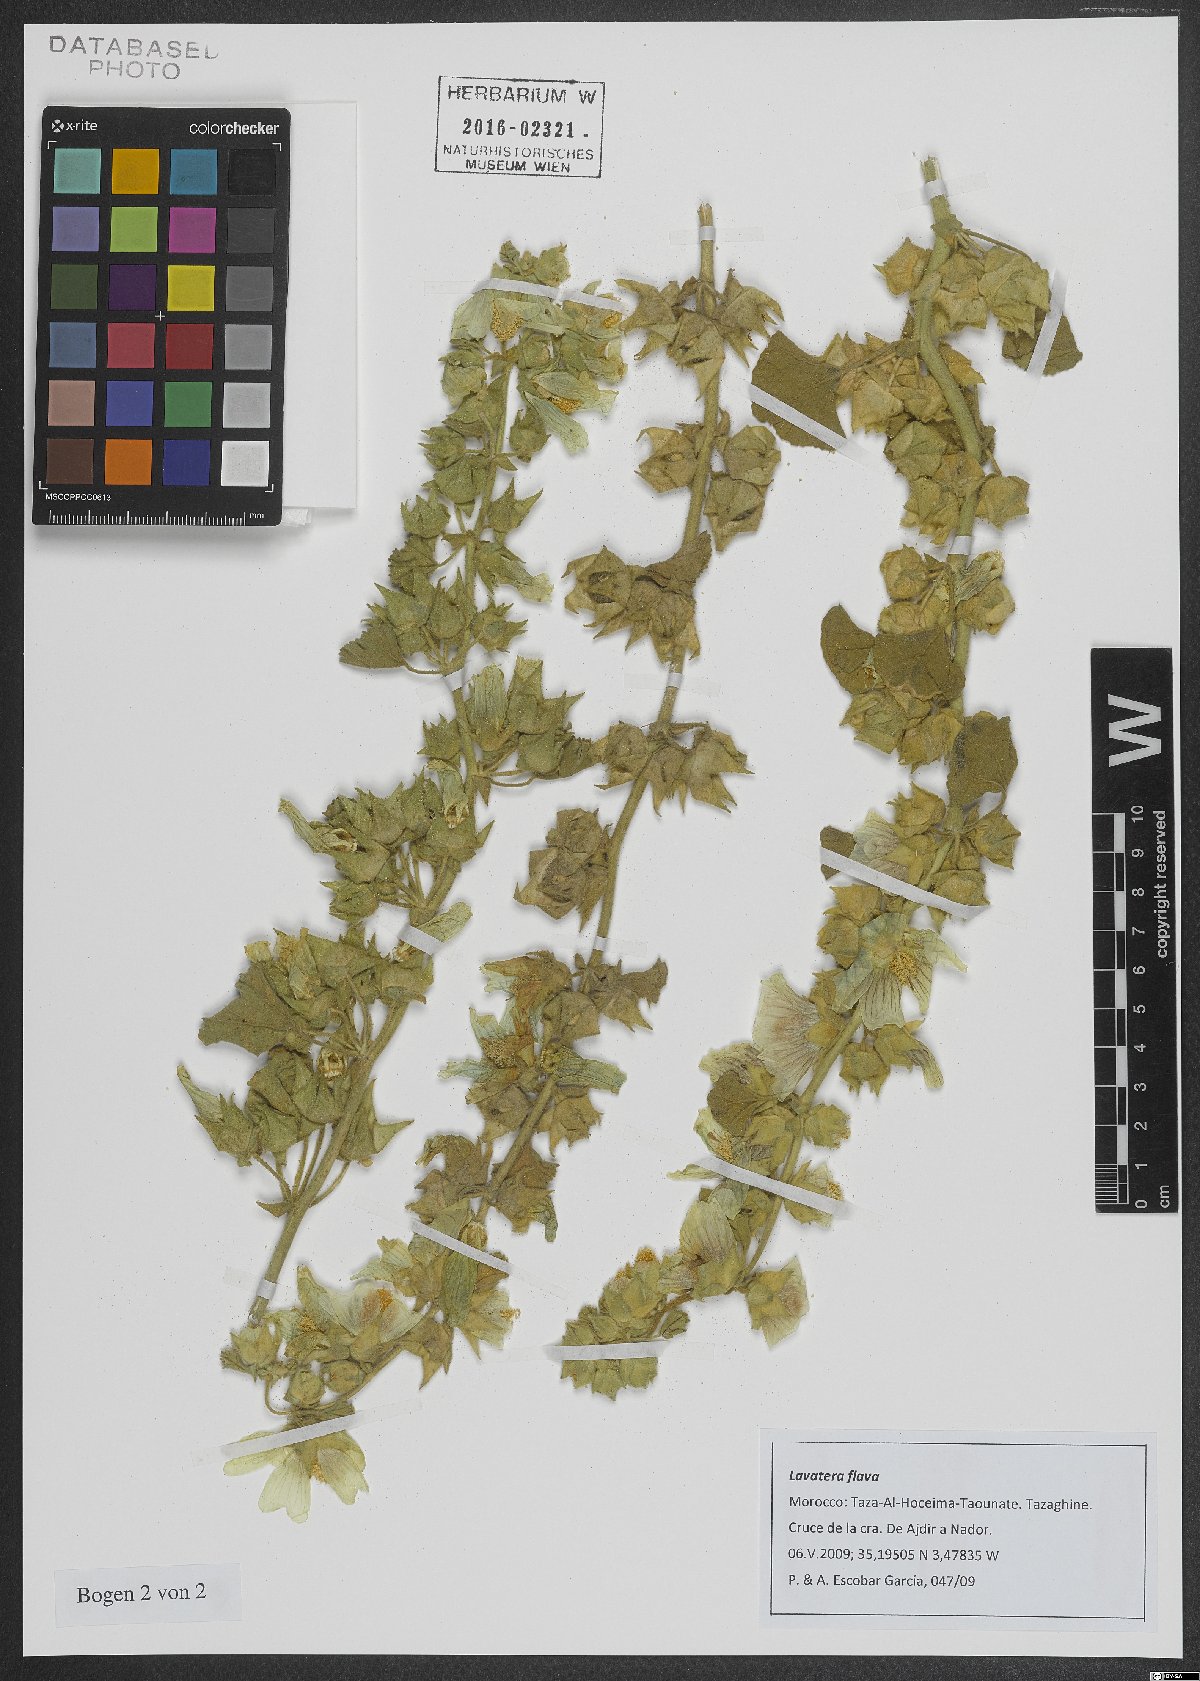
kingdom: Plantae
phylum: Tracheophyta
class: Magnoliopsida
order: Malvales
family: Malvaceae
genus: Malva
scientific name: Malva flava
